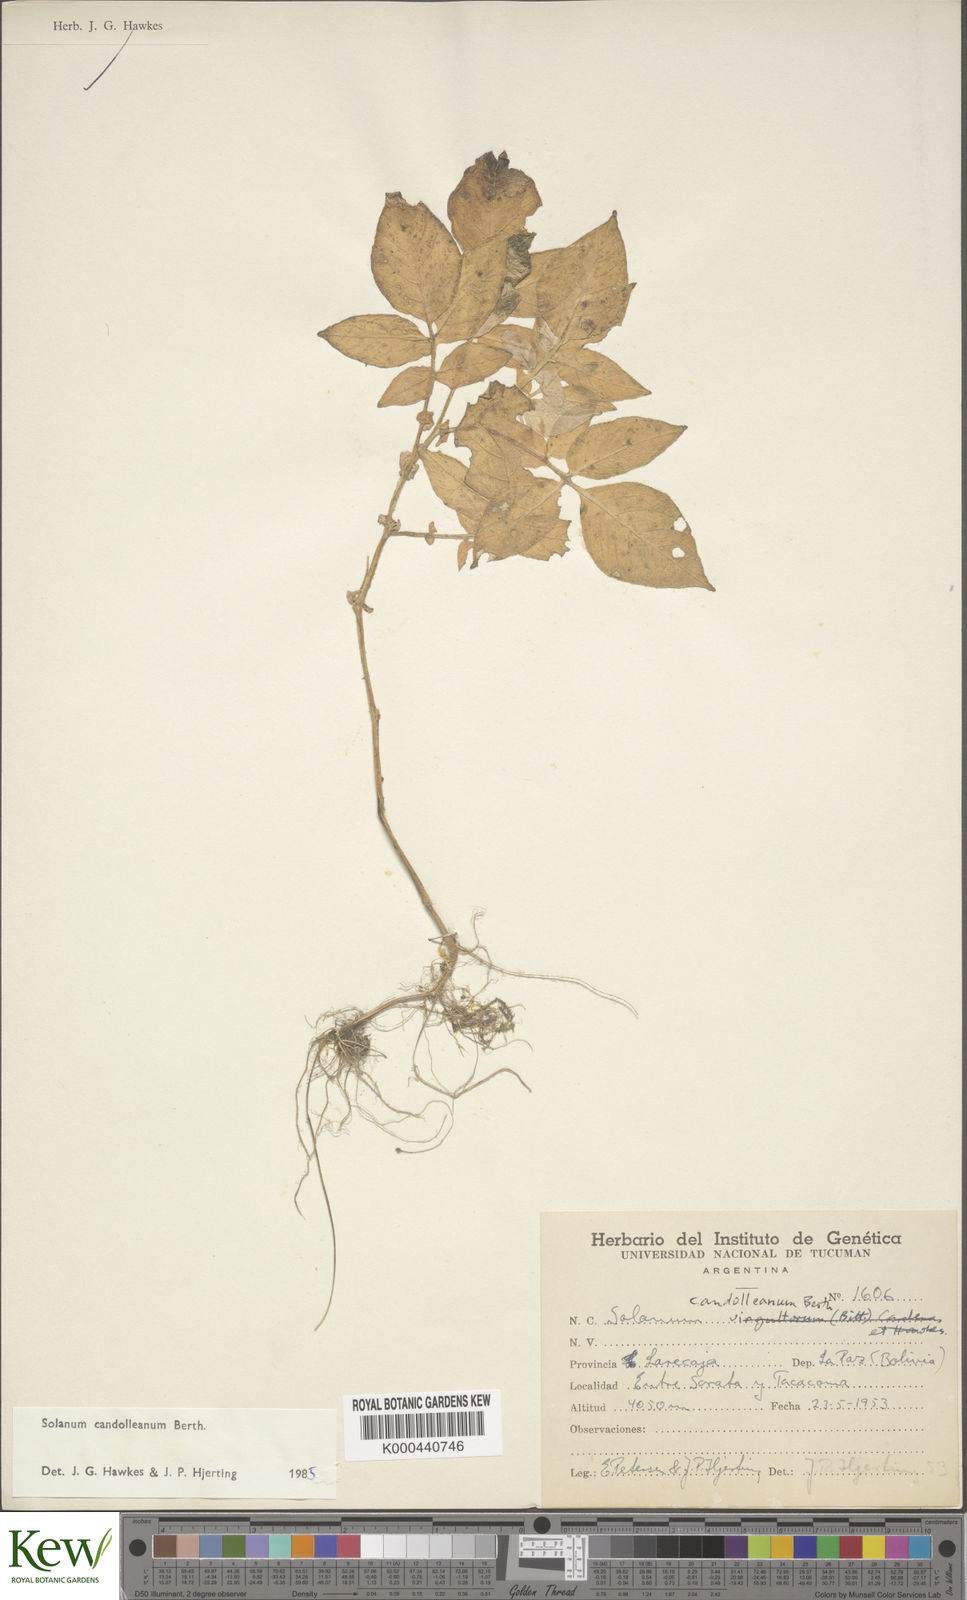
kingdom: Plantae
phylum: Tracheophyta
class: Magnoliopsida
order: Solanales
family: Solanaceae
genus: Solanum
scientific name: Solanum brevicaule
